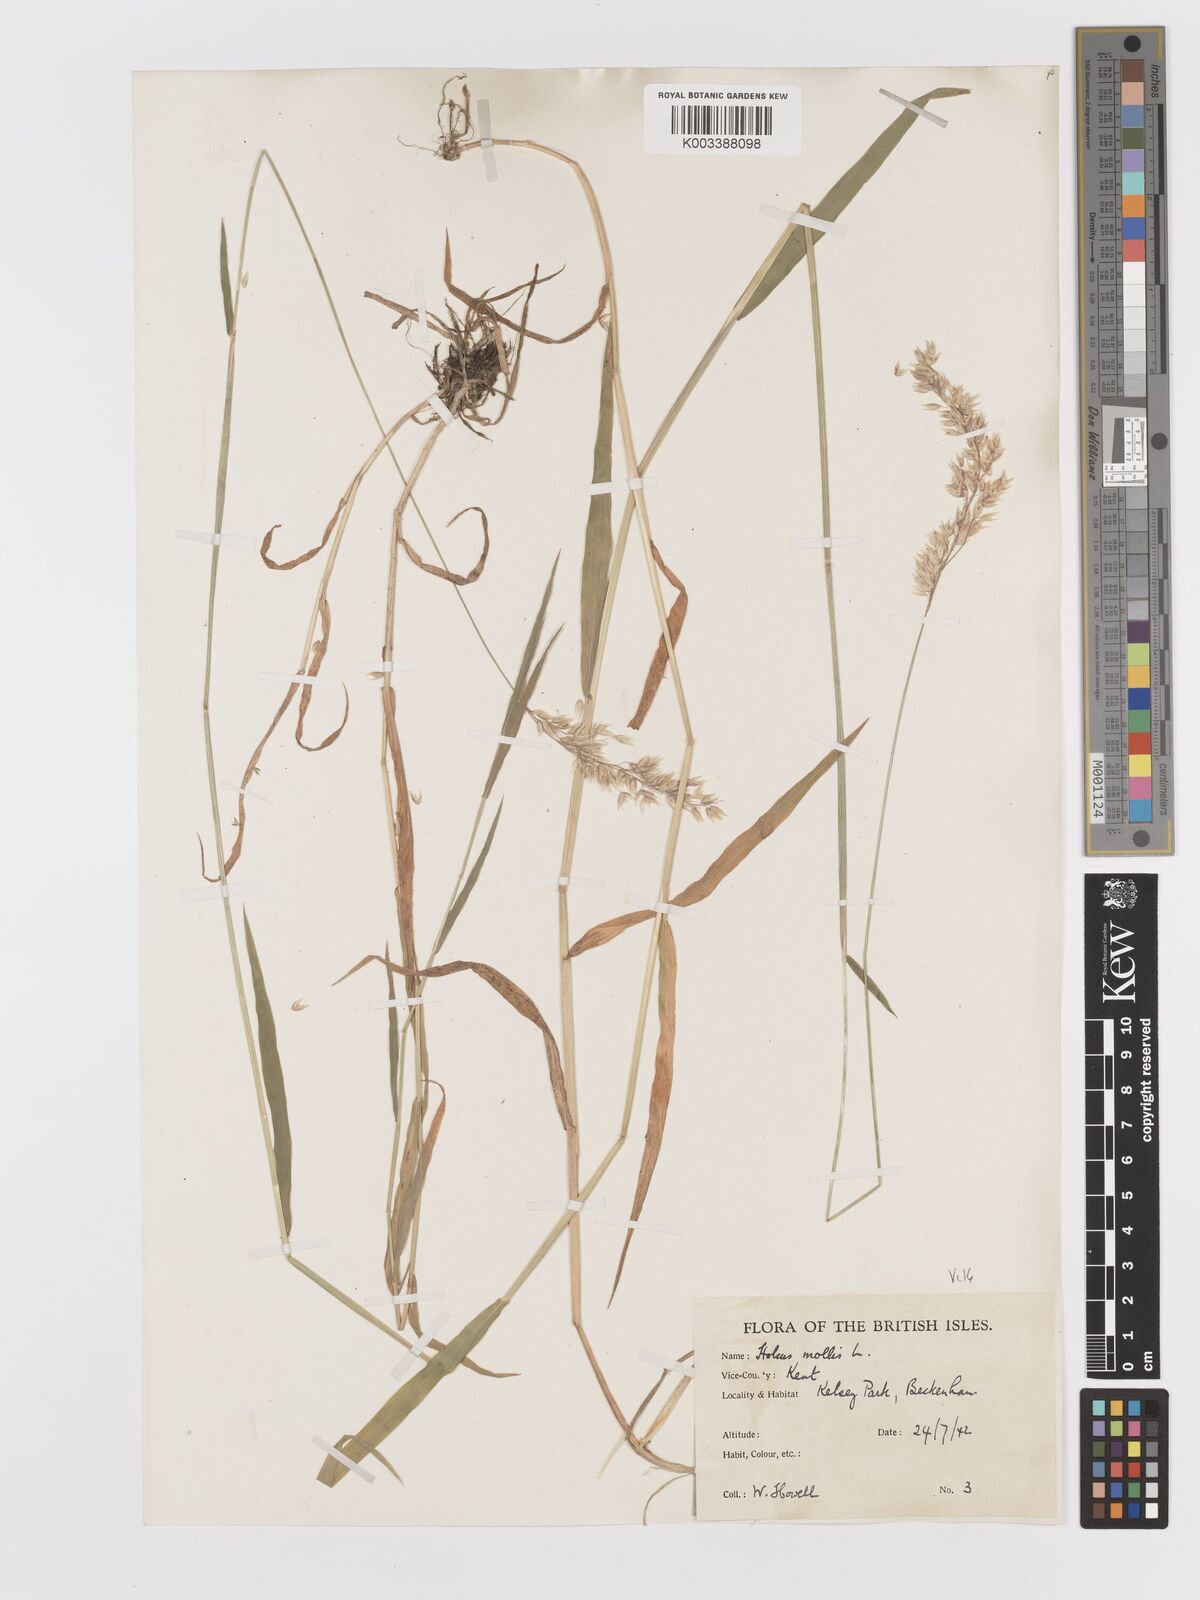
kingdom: Plantae
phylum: Tracheophyta
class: Liliopsida
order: Poales
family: Poaceae
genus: Holcus
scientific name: Holcus mollis
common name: Creeping velvetgrass
